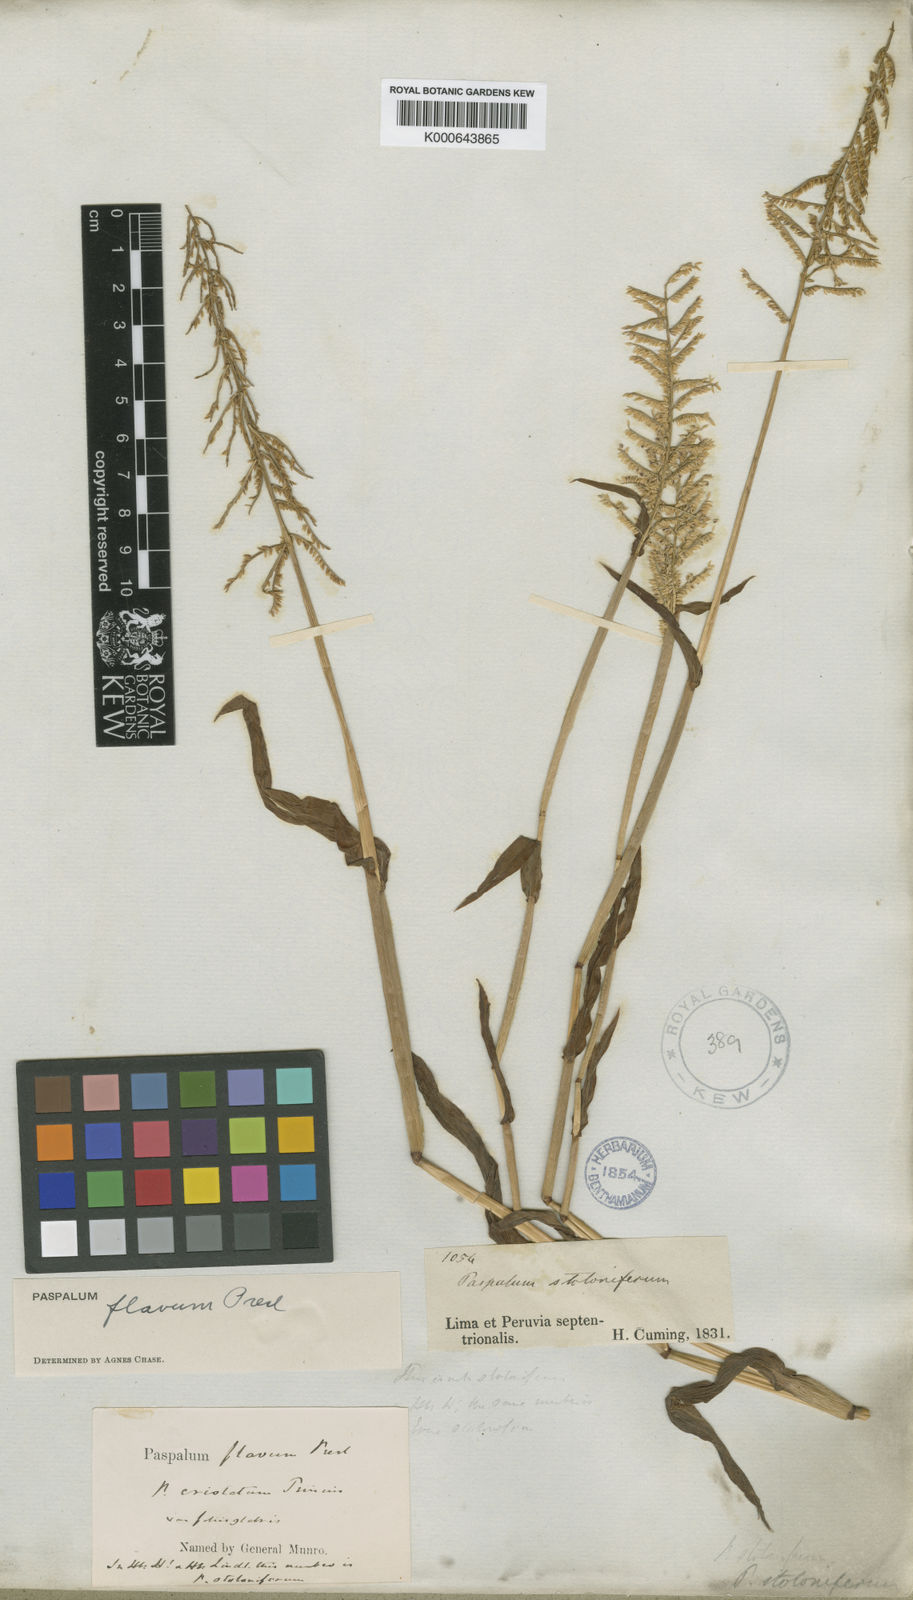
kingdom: Plantae
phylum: Tracheophyta
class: Liliopsida
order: Poales
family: Poaceae
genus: Paspalum
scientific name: Paspalum flavum
